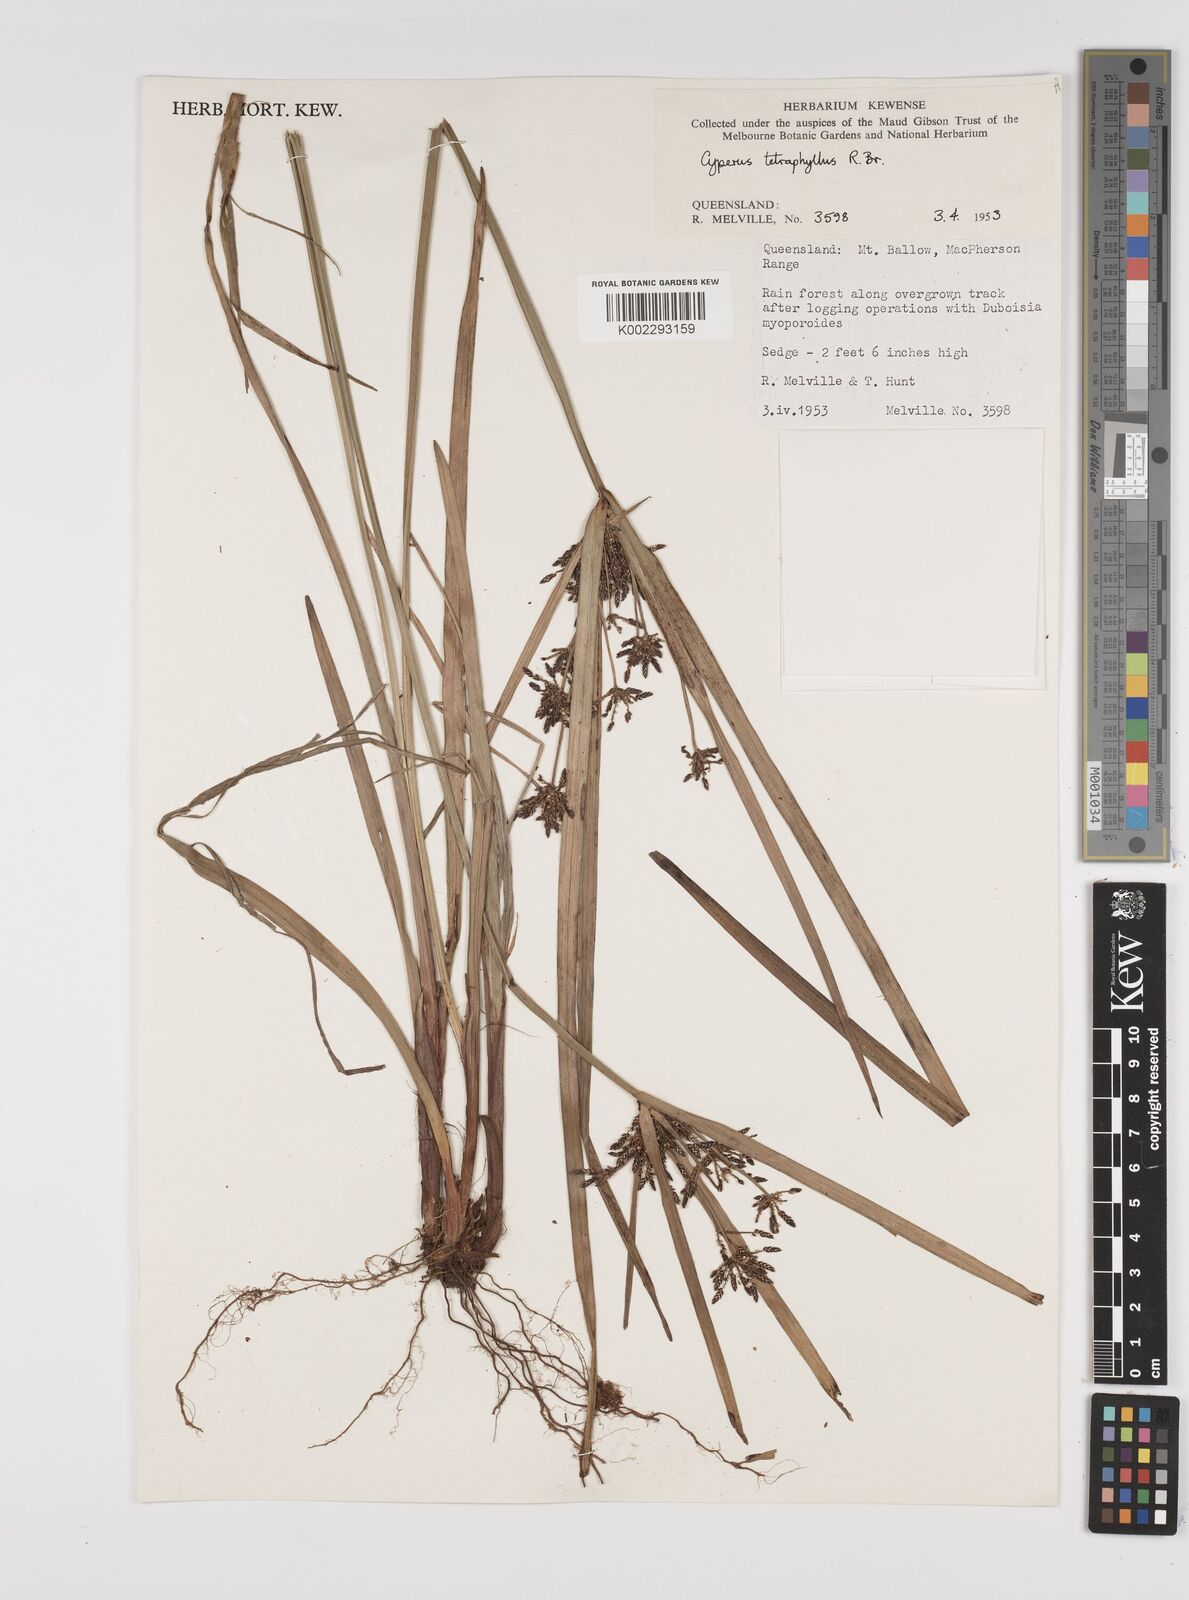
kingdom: Plantae
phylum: Tracheophyta
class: Liliopsida
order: Poales
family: Cyperaceae
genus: Cyperus
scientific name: Cyperus tetraphyllus
